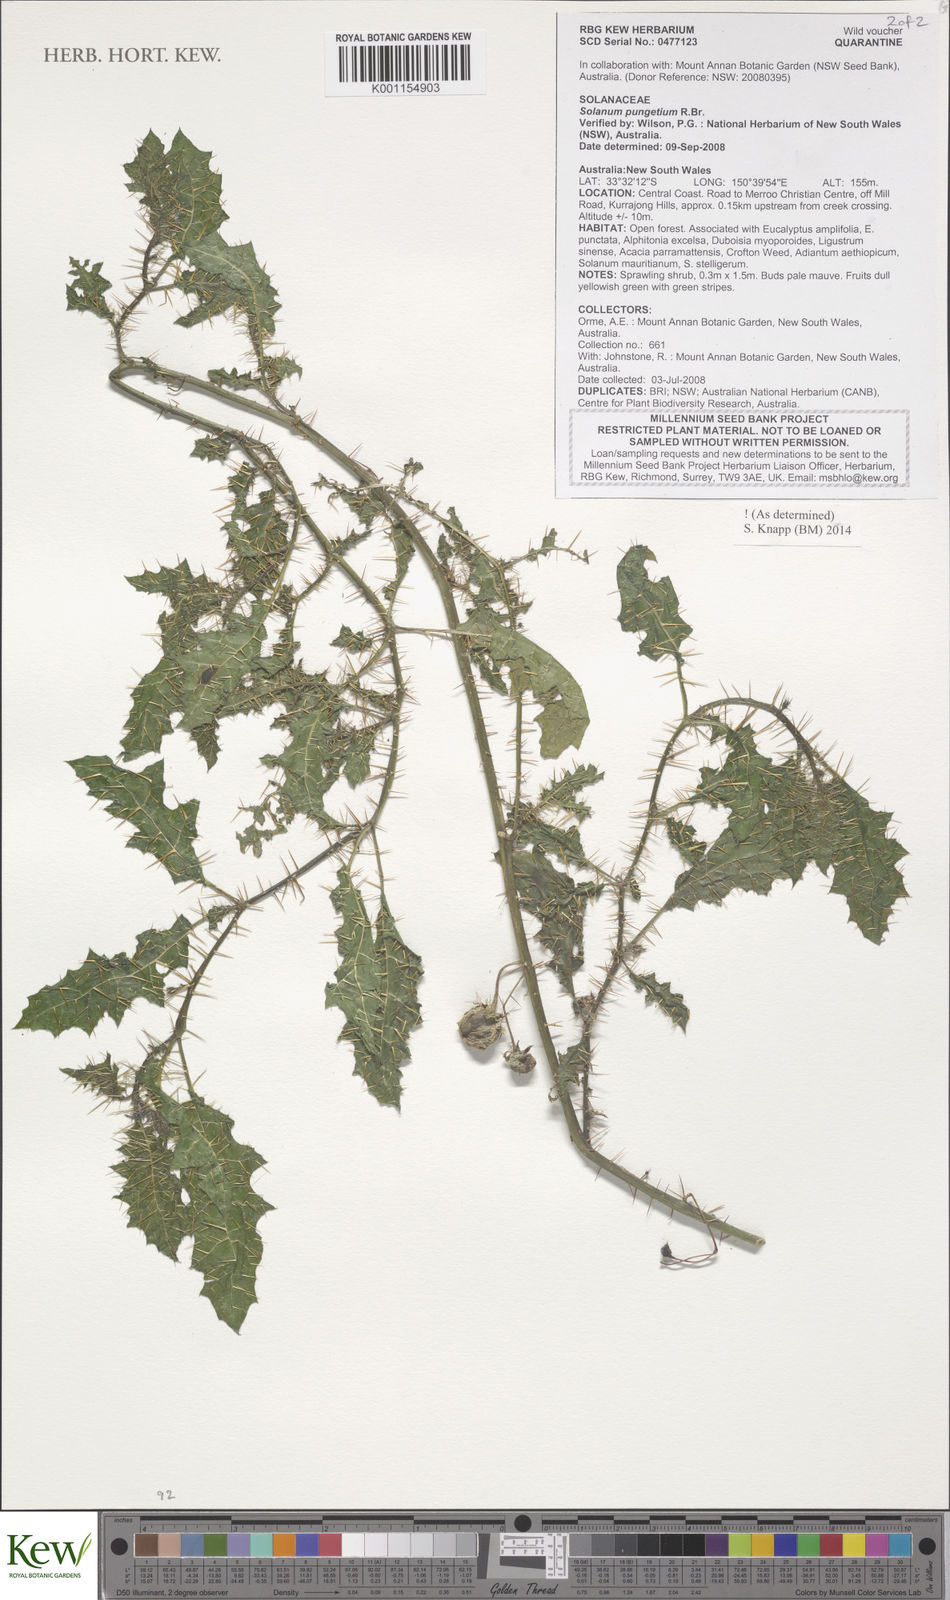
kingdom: Plantae
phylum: Tracheophyta
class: Magnoliopsida
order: Solanales
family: Solanaceae
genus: Solanum
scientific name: Solanum pungetium
